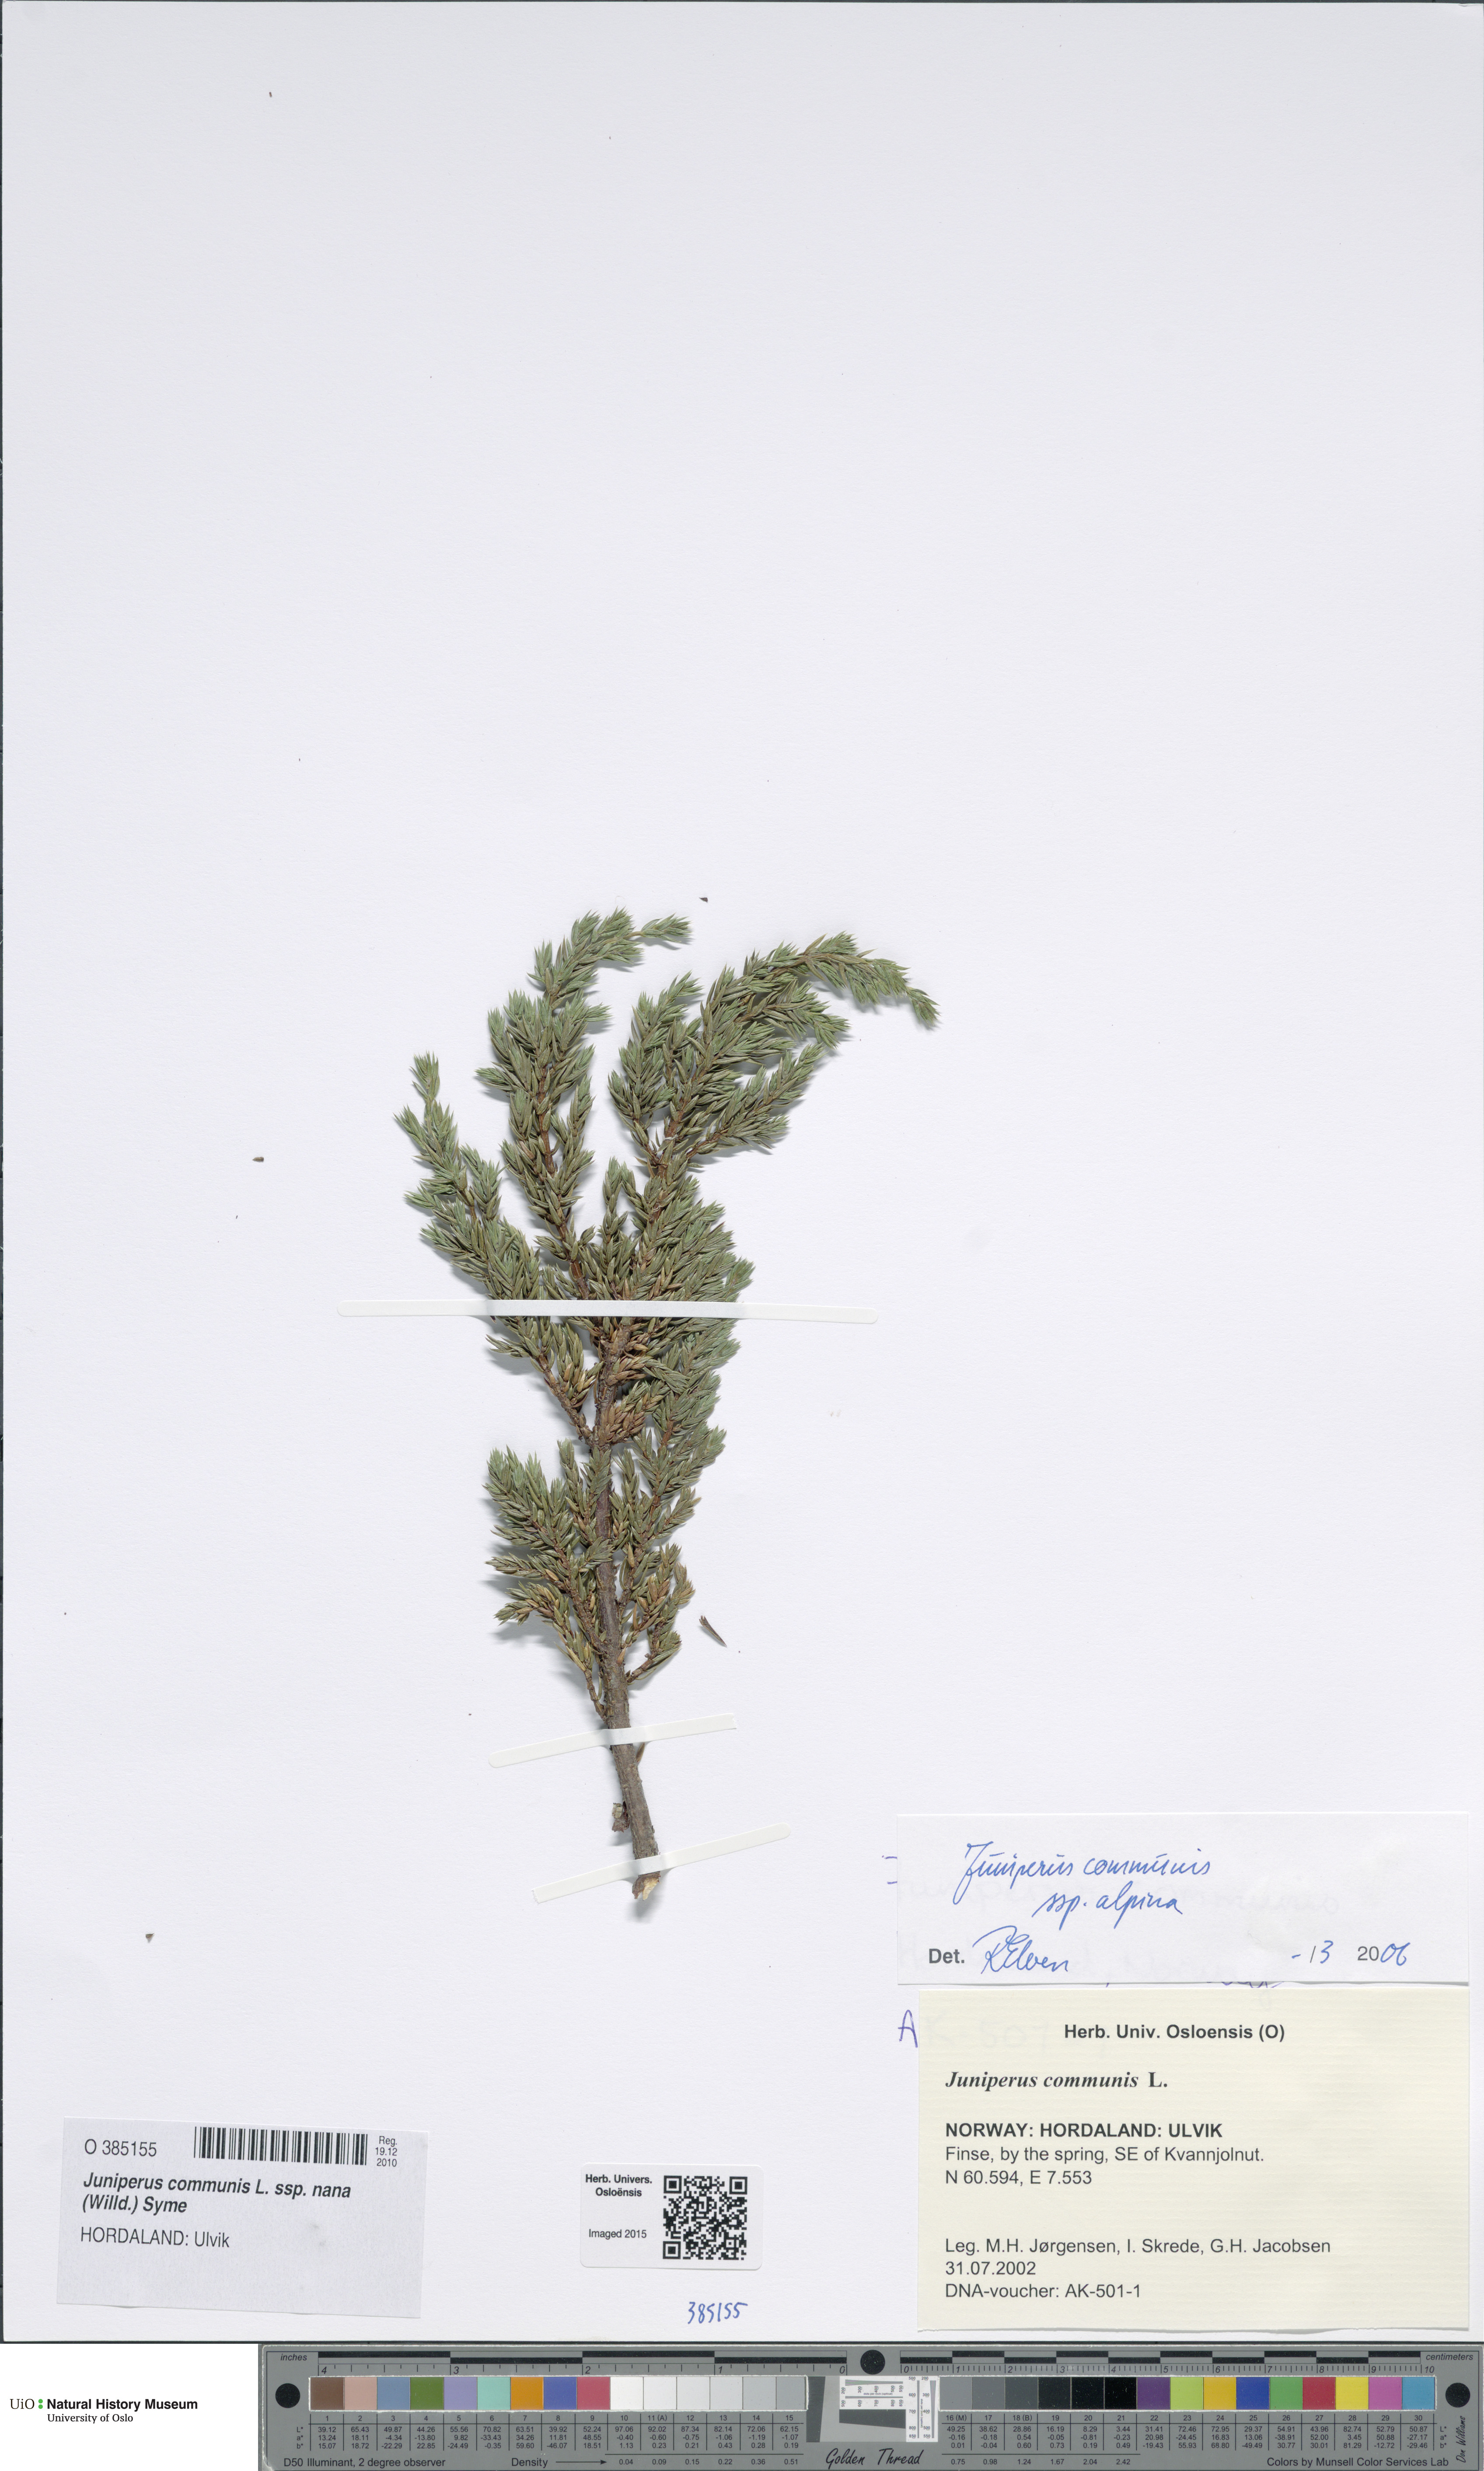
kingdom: Plantae
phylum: Tracheophyta
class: Pinopsida
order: Pinales
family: Cupressaceae
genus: Juniperus
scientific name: Juniperus communis
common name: Common juniper
